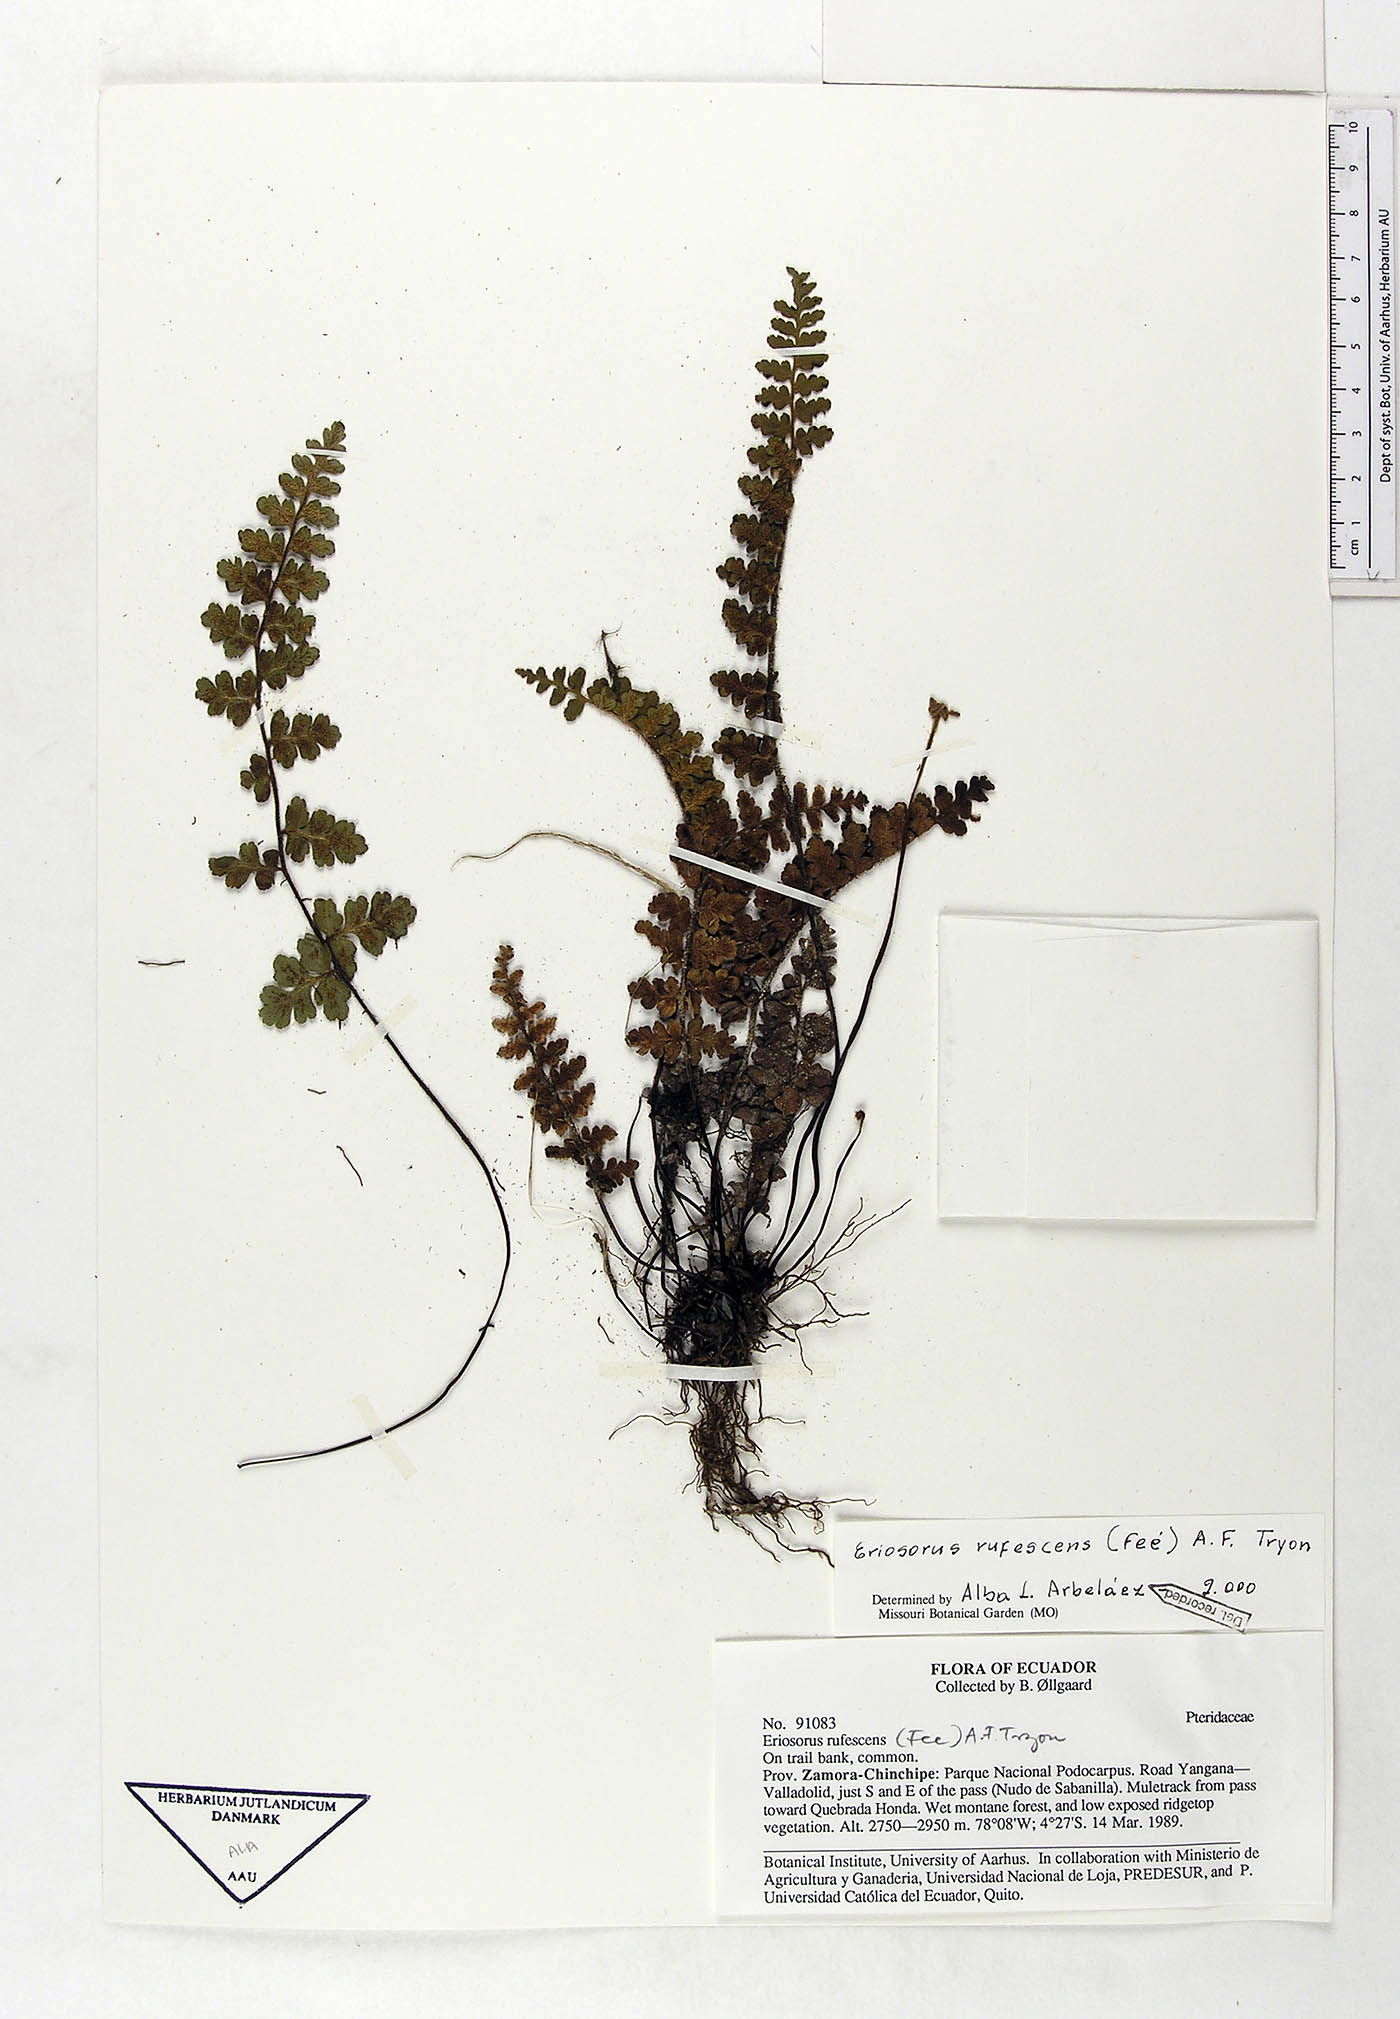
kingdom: Plantae
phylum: Tracheophyta
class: Polypodiopsida
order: Polypodiales
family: Pteridaceae
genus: Jamesonia
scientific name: Jamesonia rufescens
